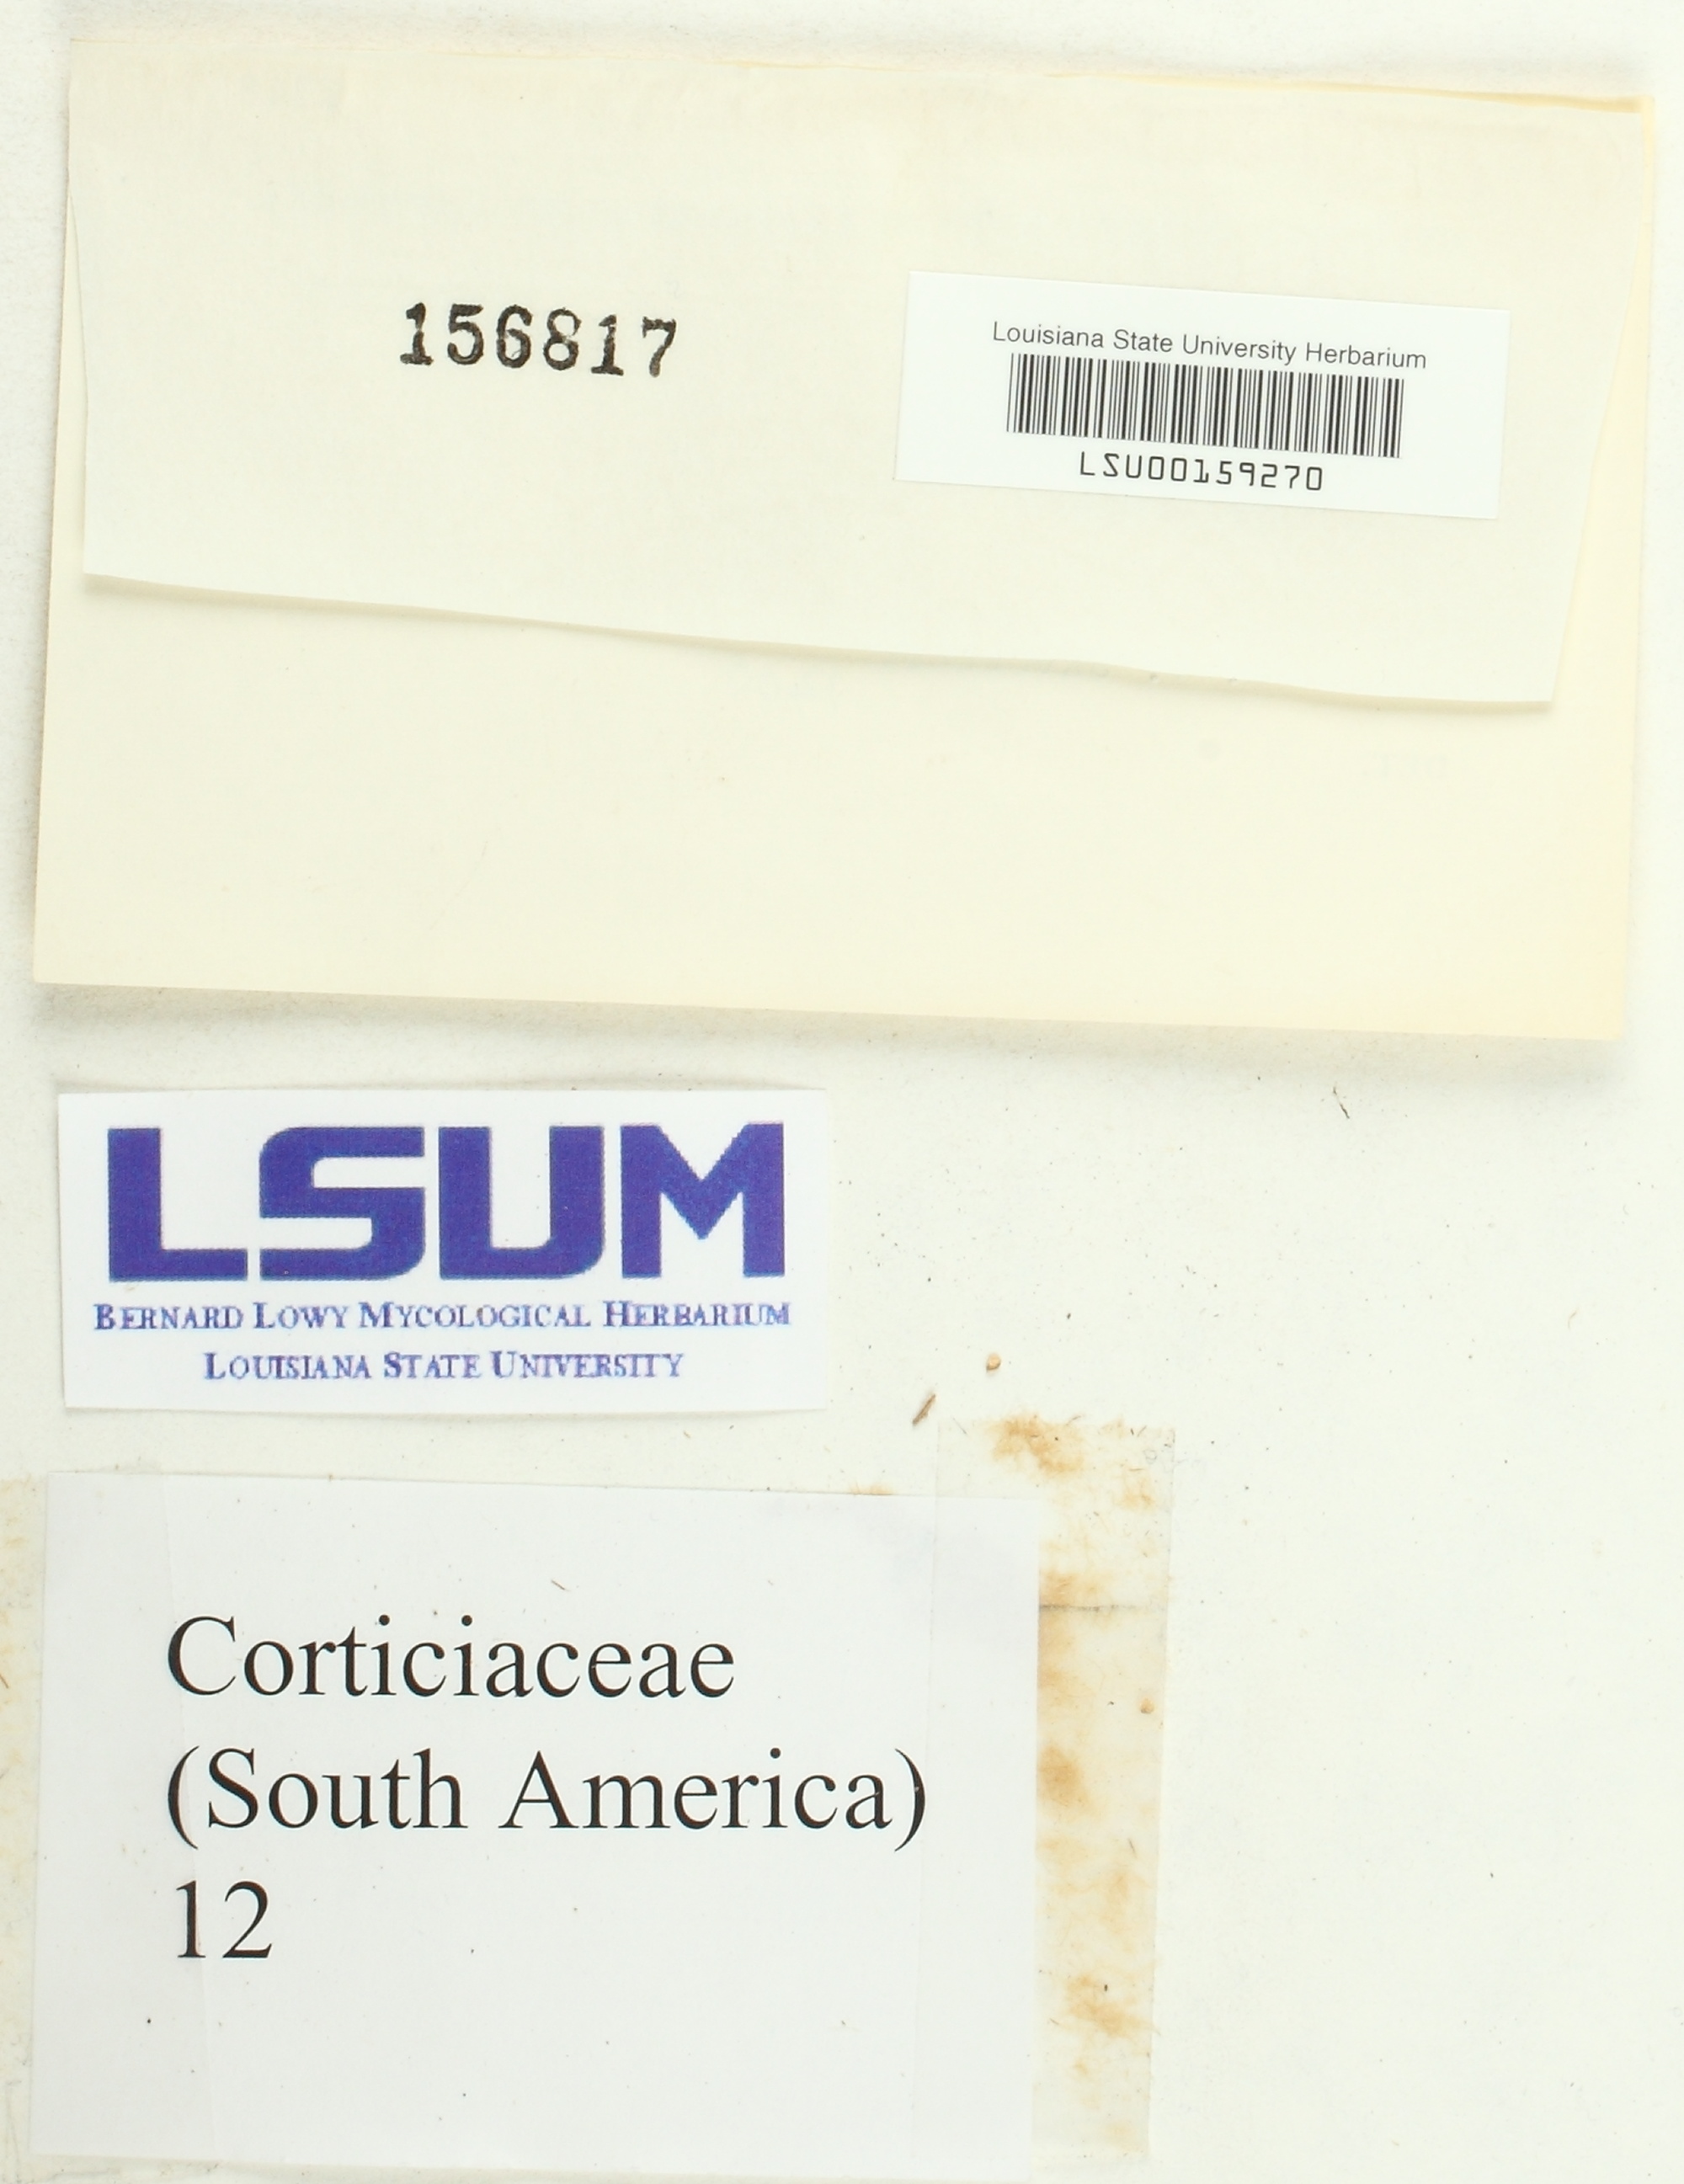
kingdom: Fungi
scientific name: Fungi
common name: Fungi
